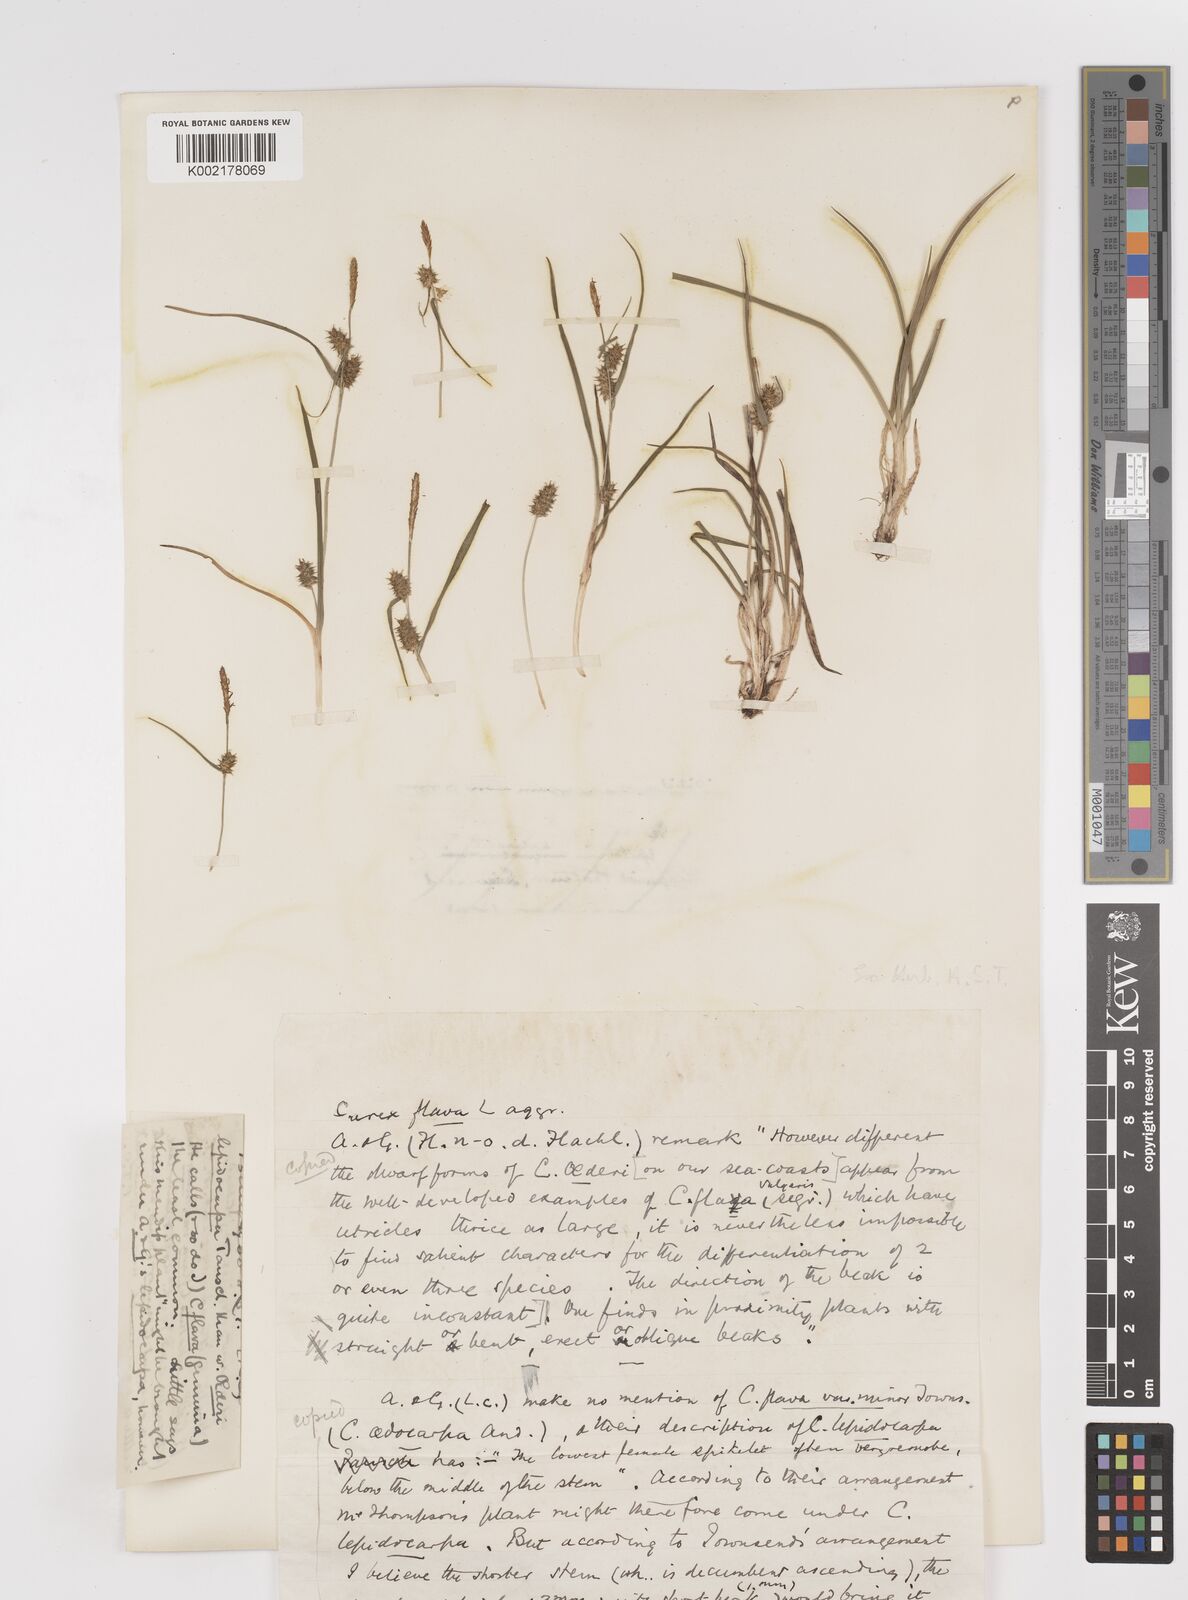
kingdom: Plantae
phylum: Tracheophyta
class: Liliopsida
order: Poales
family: Cyperaceae
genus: Carex
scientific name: Carex demissa
